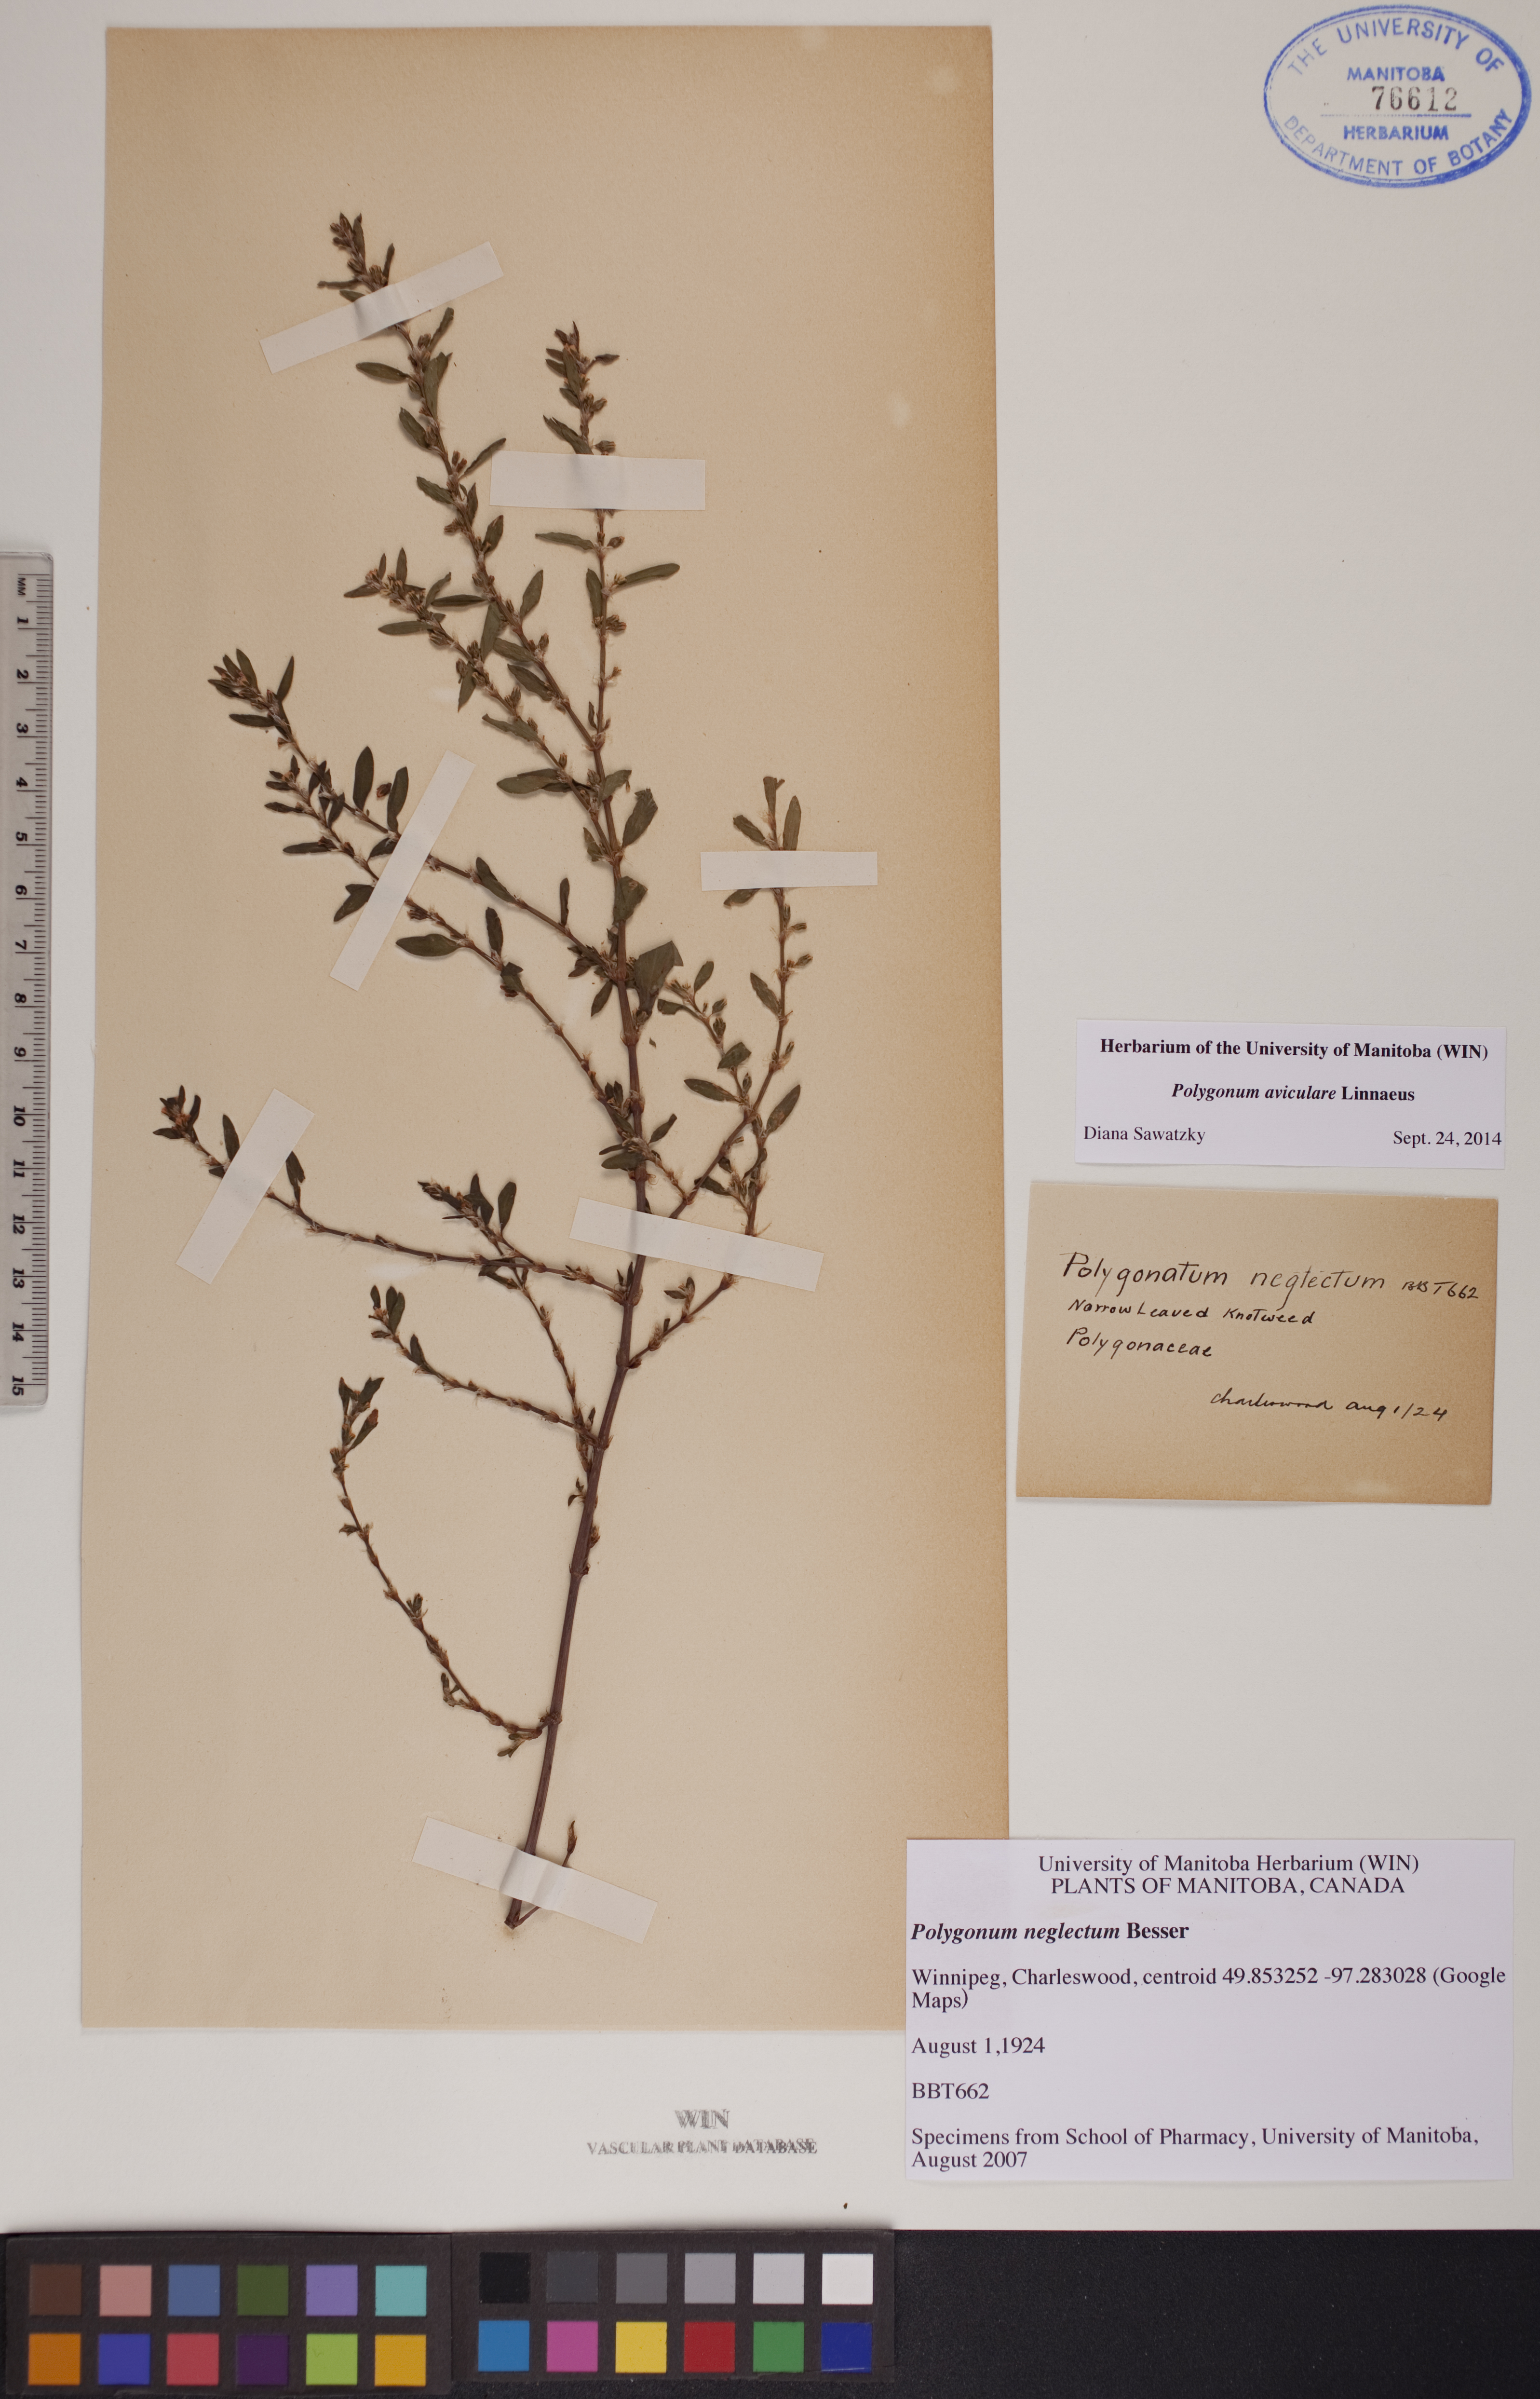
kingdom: Plantae
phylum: Tracheophyta
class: Magnoliopsida
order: Caryophyllales
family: Polygonaceae
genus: Polygonum
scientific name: Polygonum aviculare
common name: Prostrate knotweed
